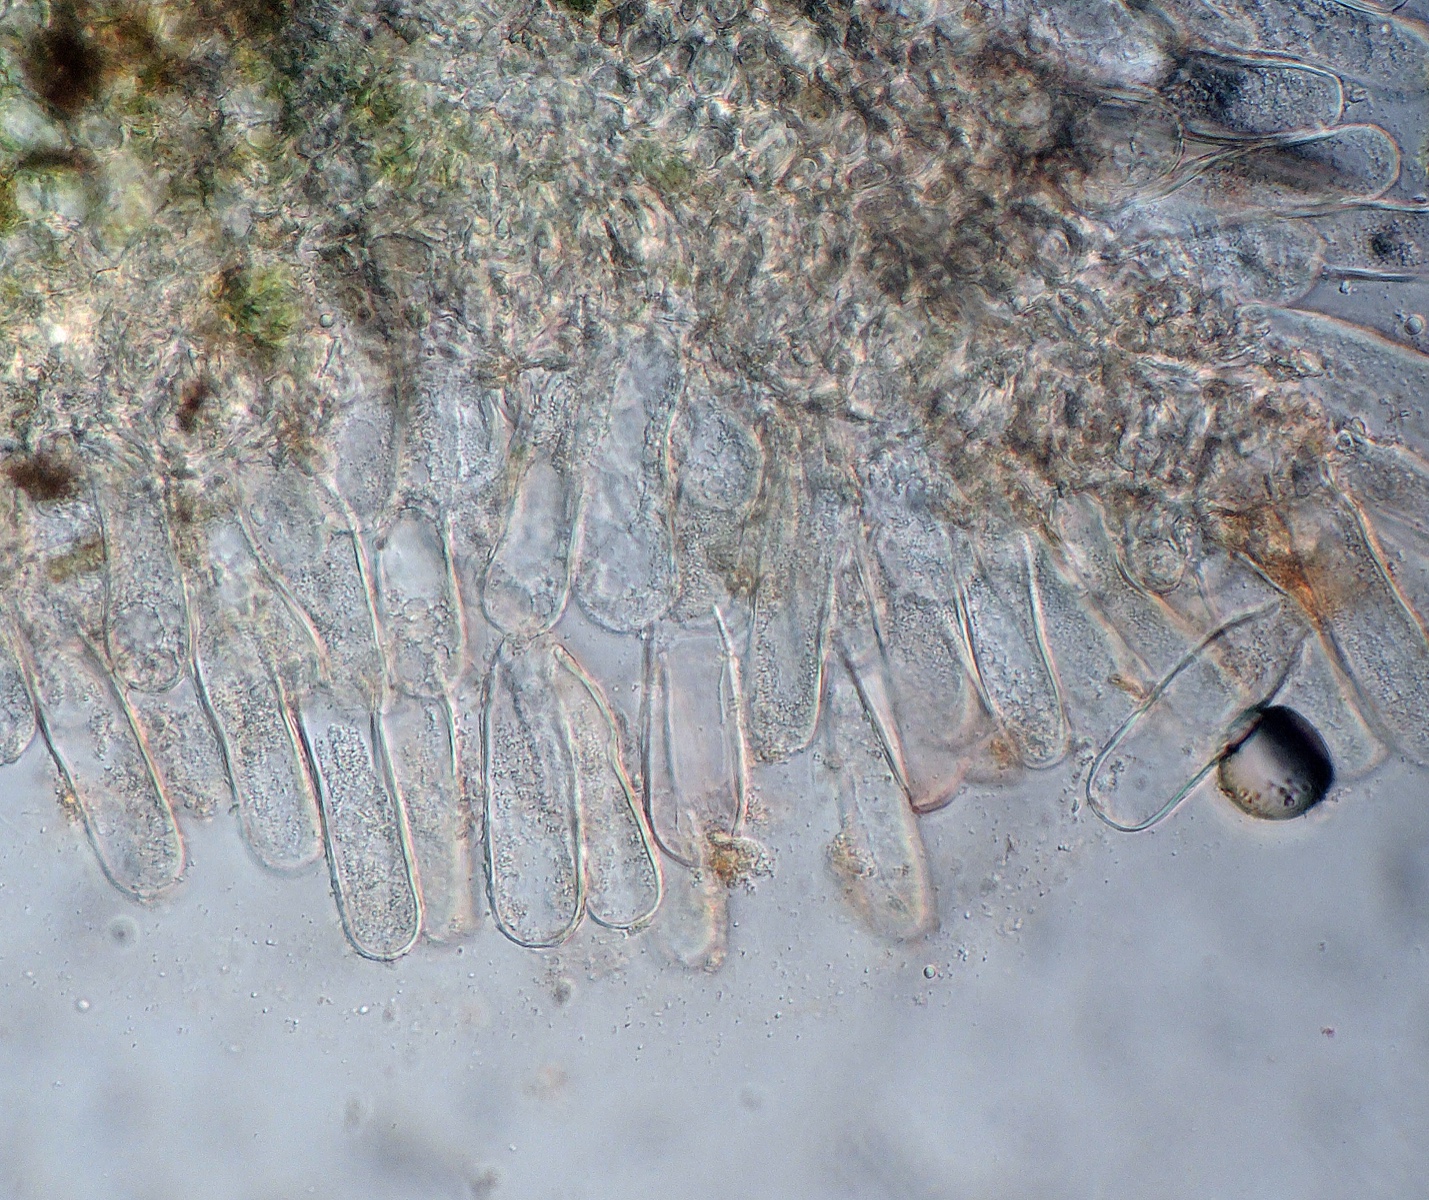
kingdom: Fungi
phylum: Ascomycota
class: Taphrinomycetes
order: Taphrinales
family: Taphrinaceae
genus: Taphrina
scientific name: Taphrina caerulescens
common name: Oak leaf blister
